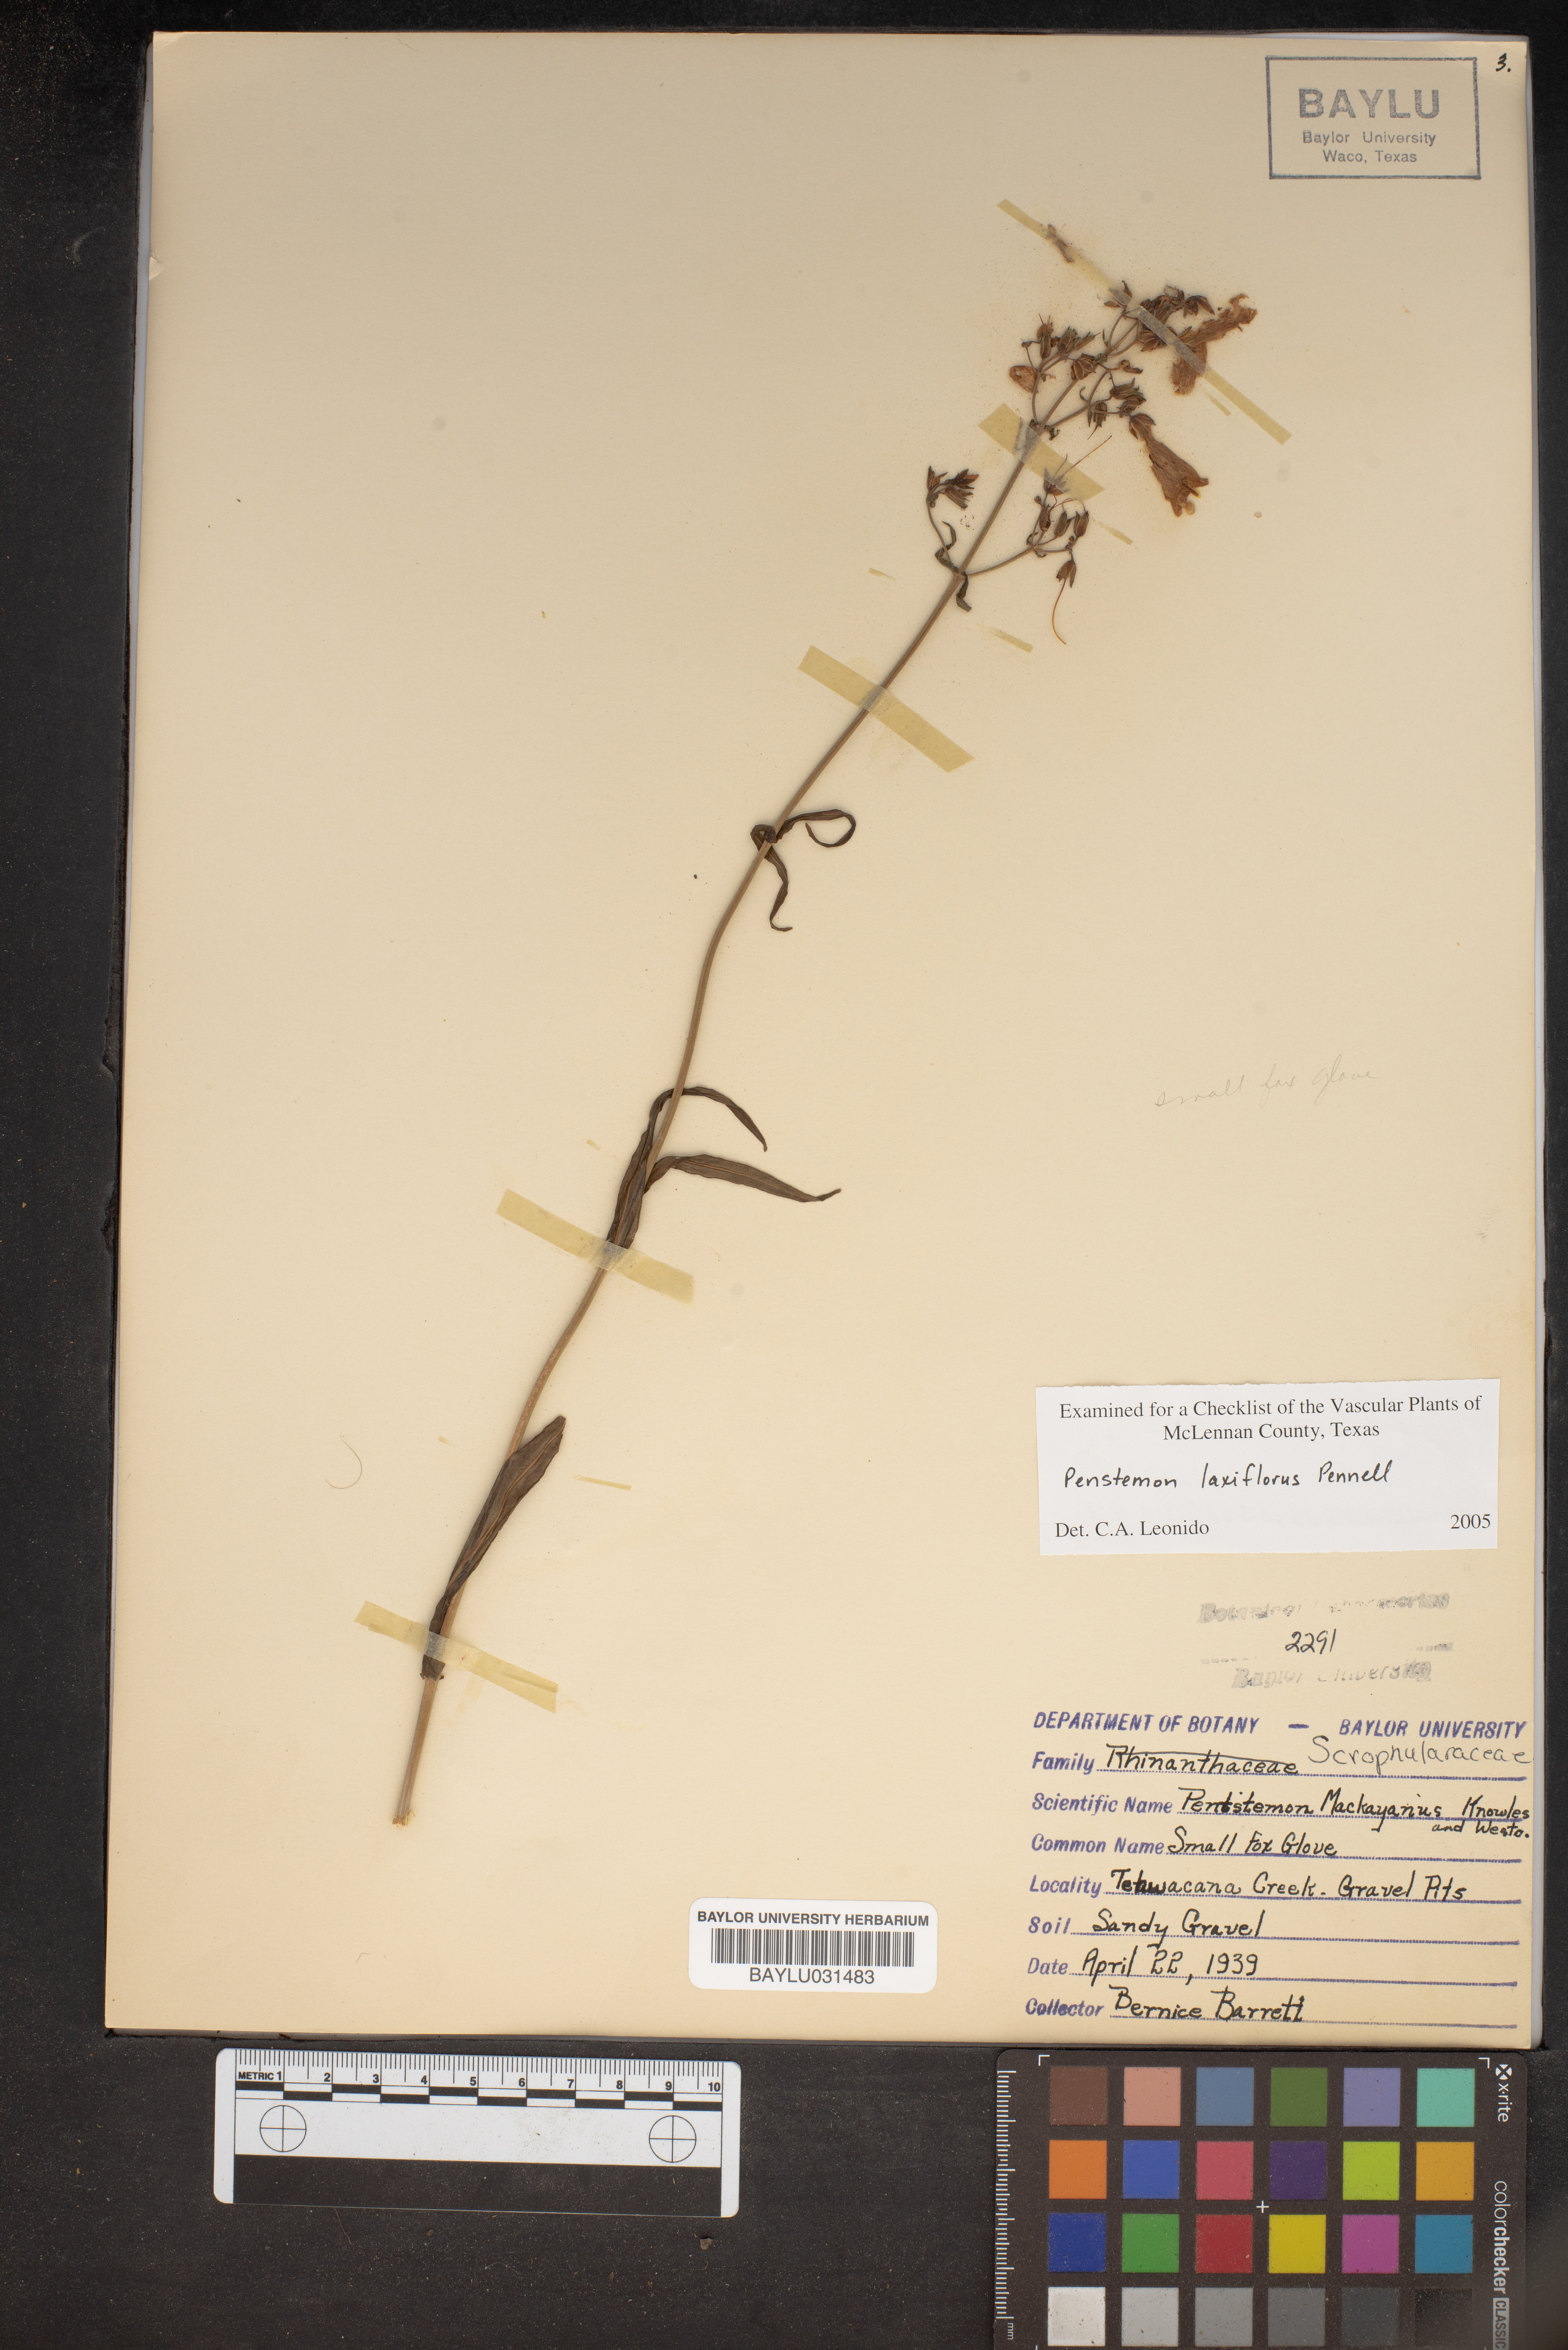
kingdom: Plantae
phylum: Tracheophyta
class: Magnoliopsida
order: Lamiales
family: Scrophulariaceae
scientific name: Scrophulariaceae
